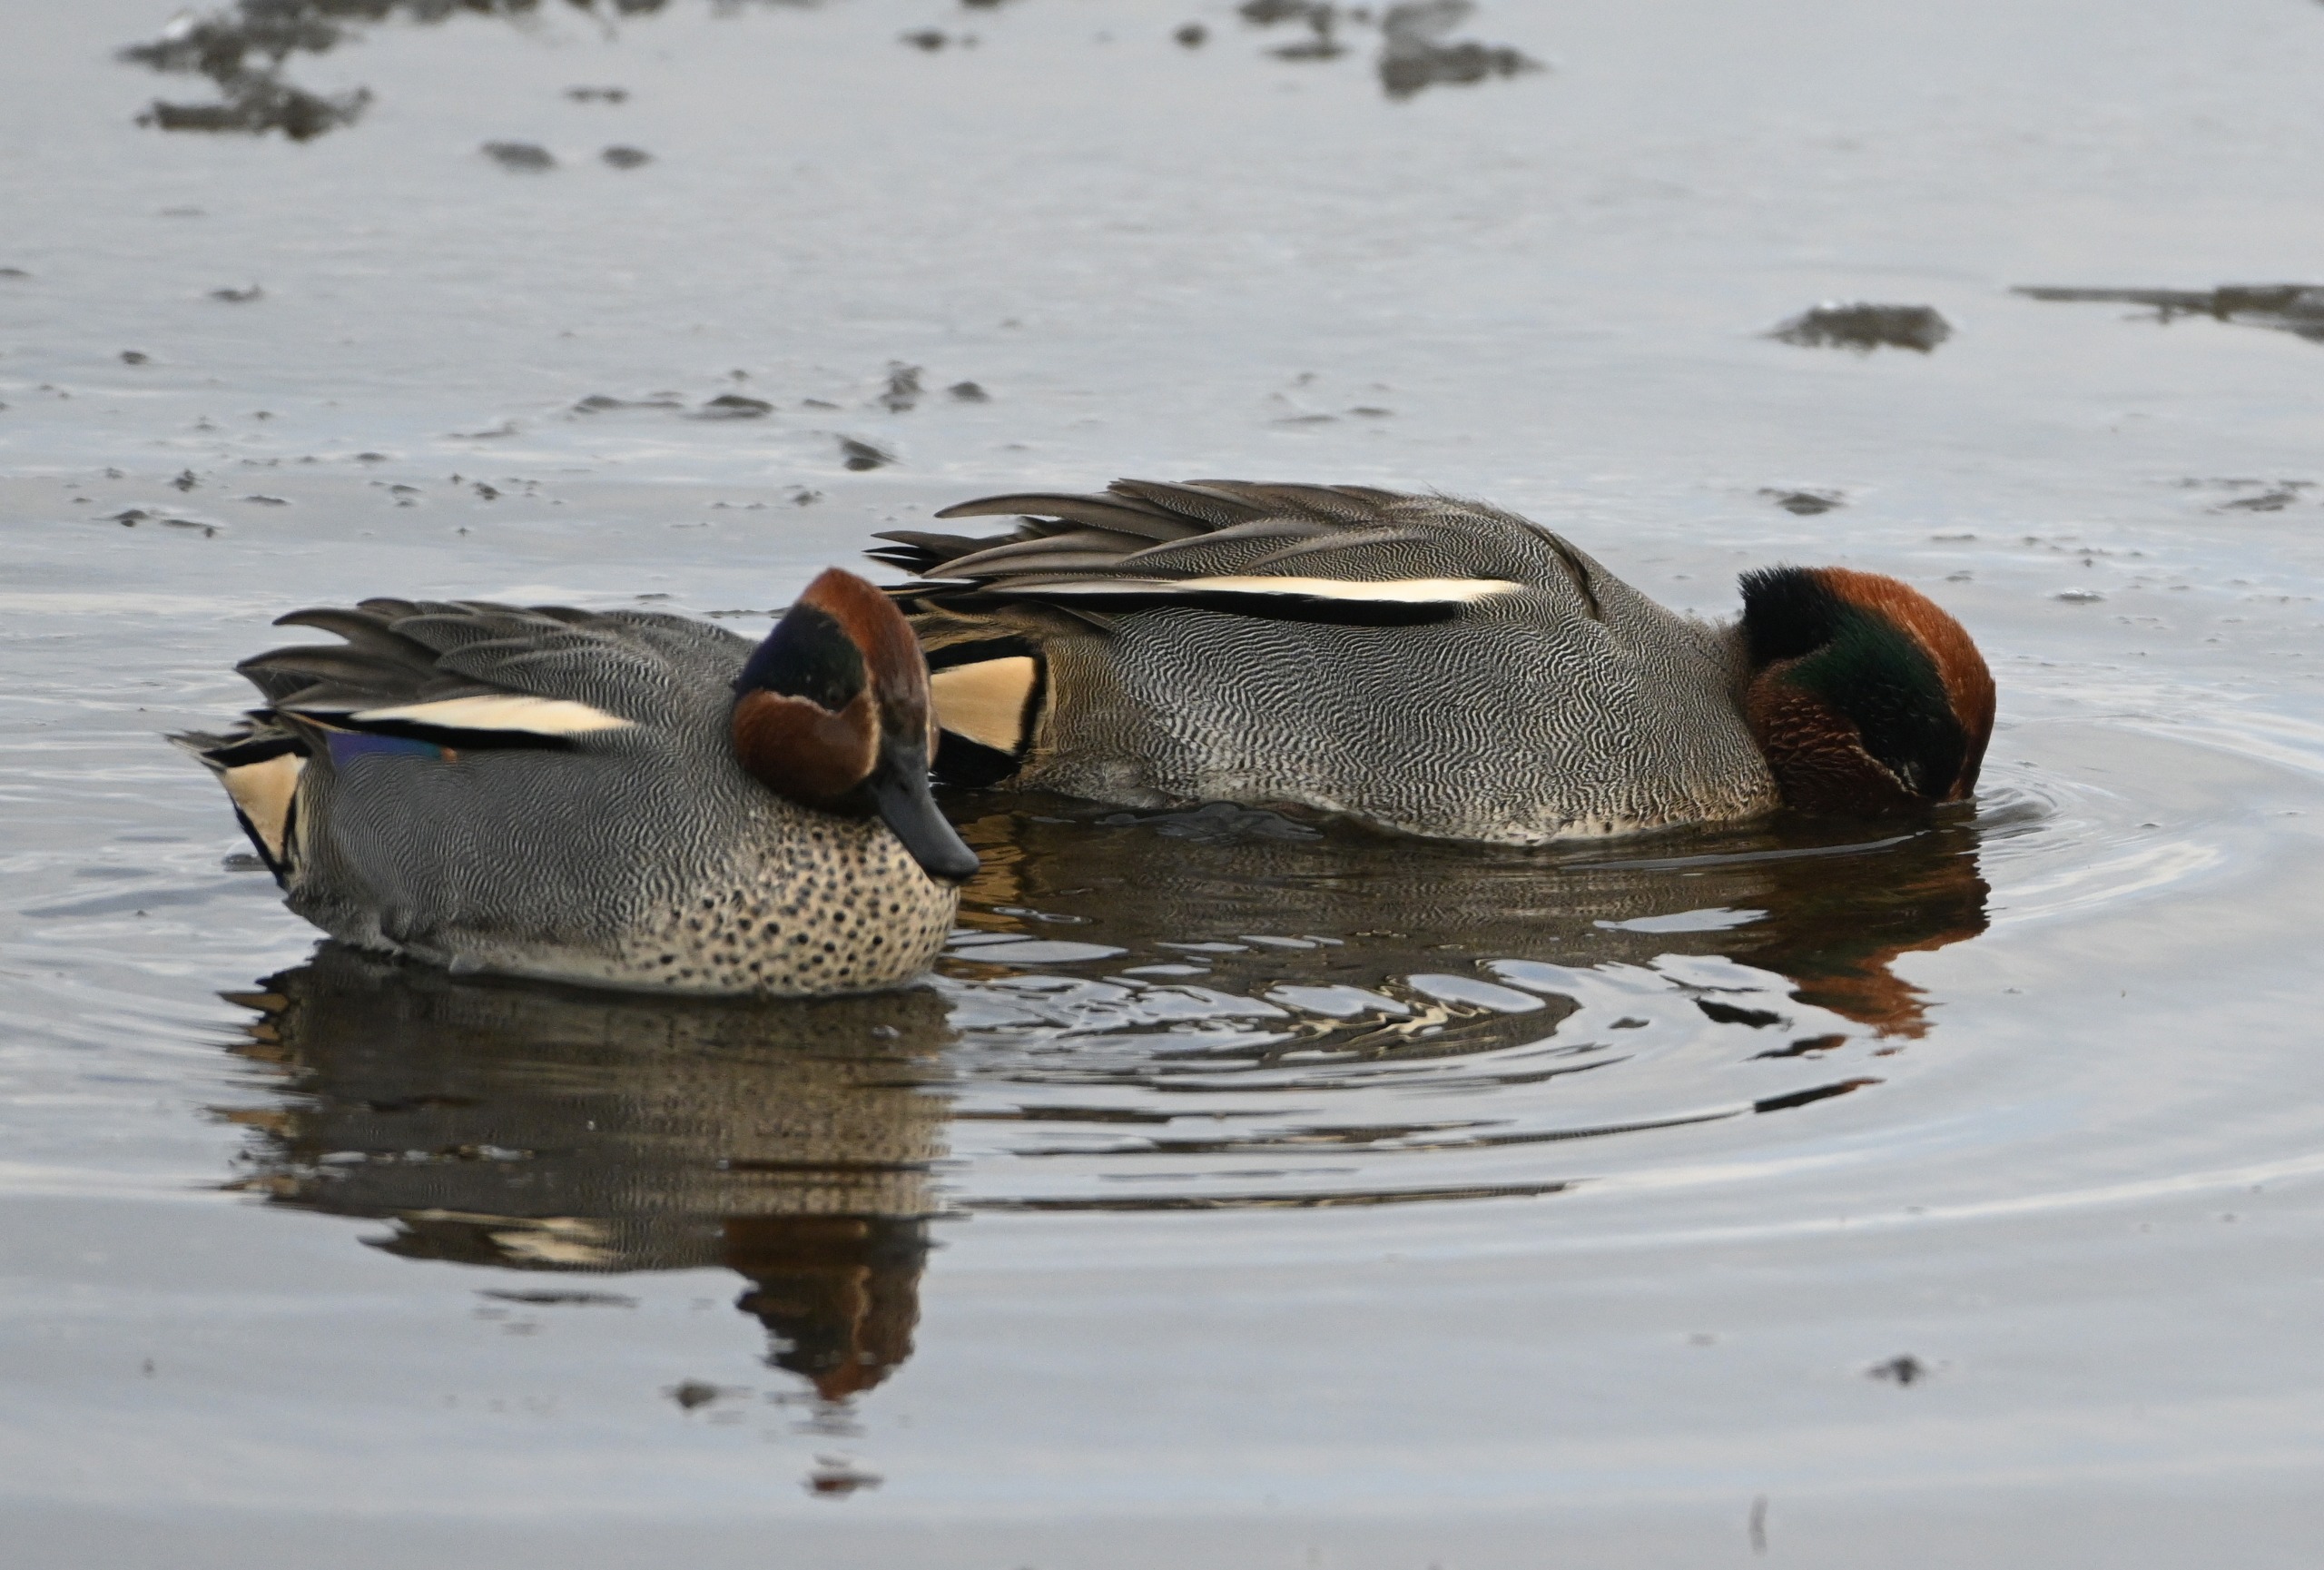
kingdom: Animalia
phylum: Chordata
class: Aves
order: Anseriformes
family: Anatidae
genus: Anas
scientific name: Anas crecca
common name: Krikand
